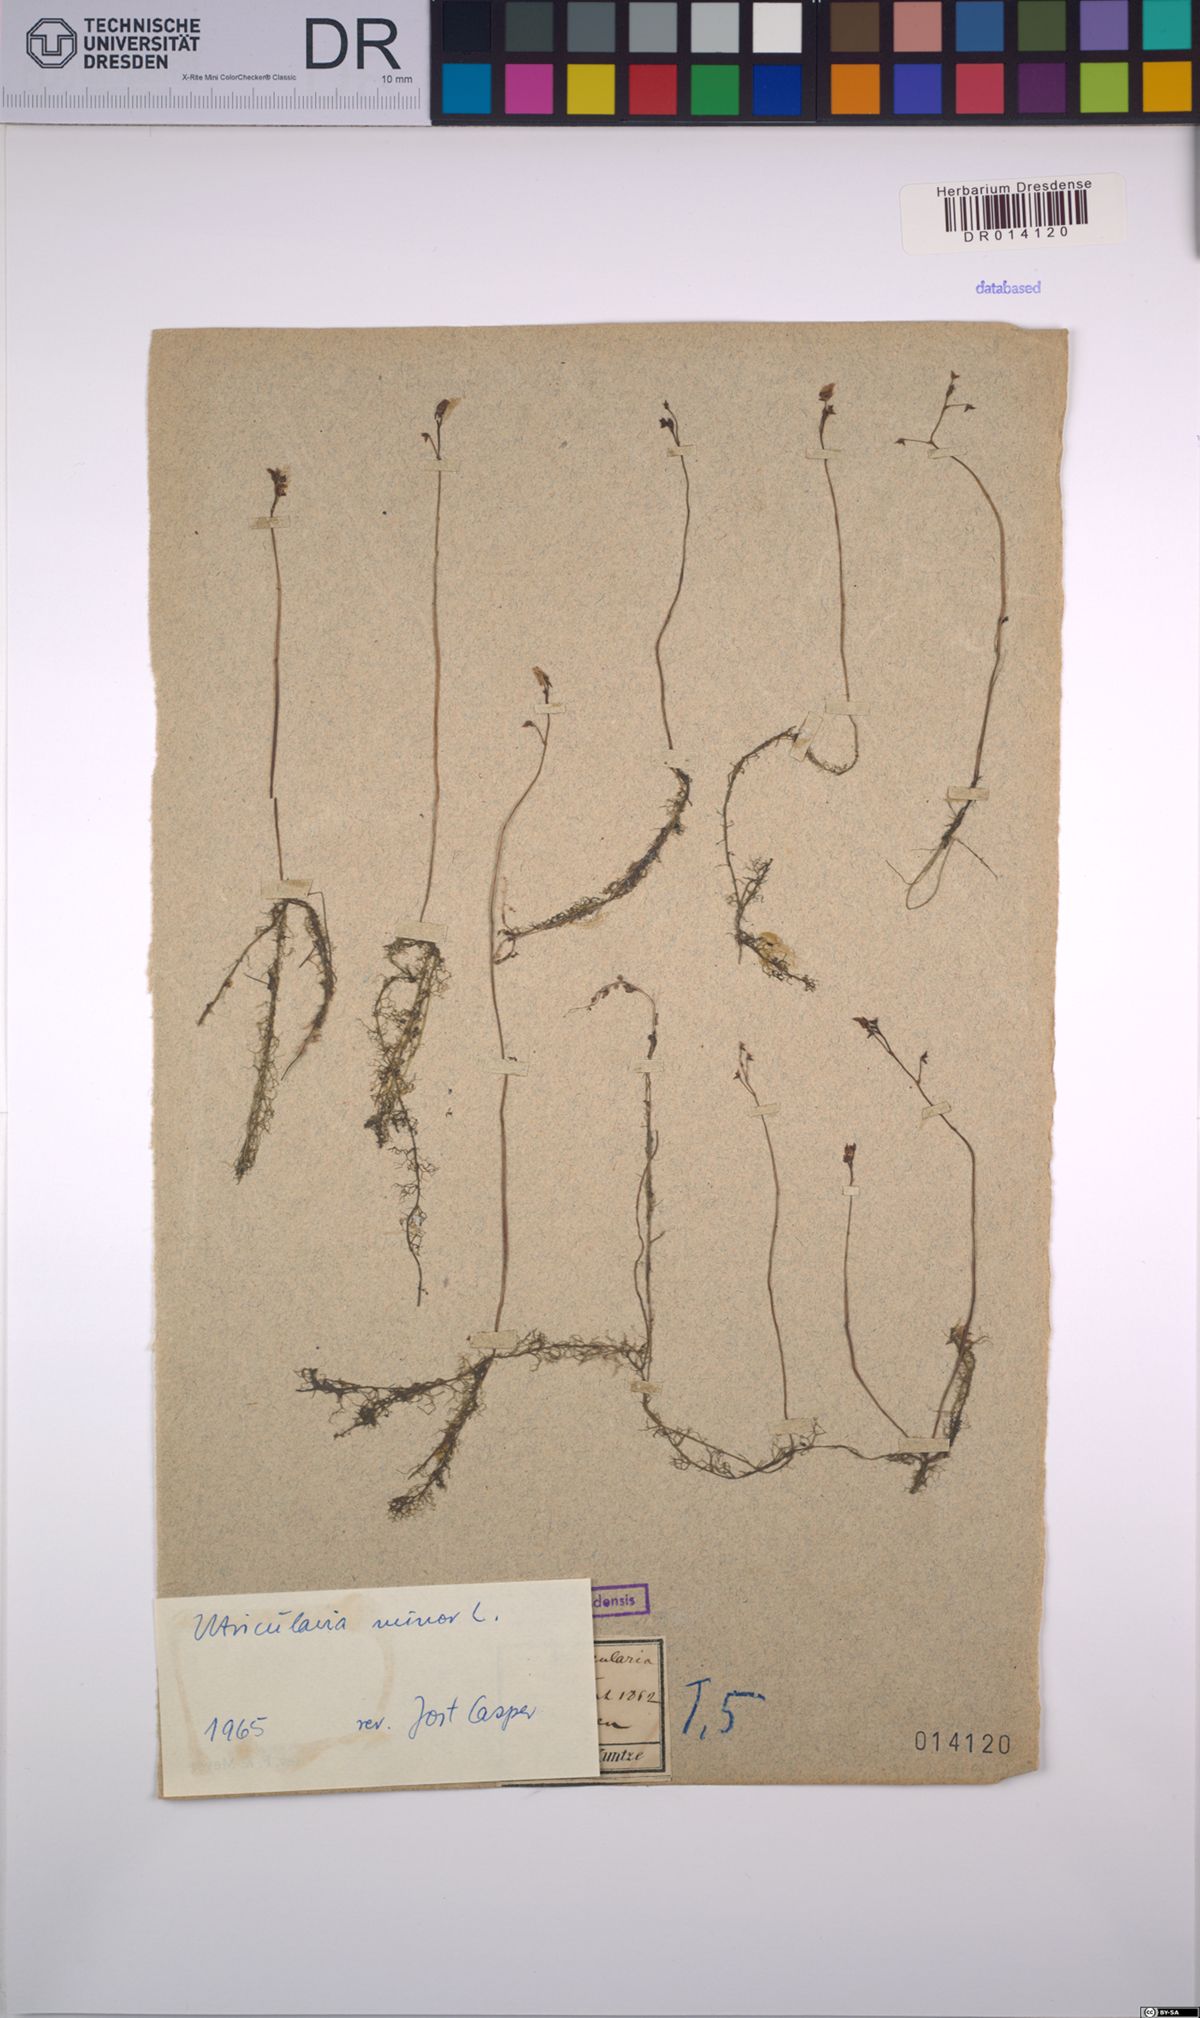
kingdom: Plantae
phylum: Tracheophyta
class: Magnoliopsida
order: Lamiales
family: Lentibulariaceae
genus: Utricularia
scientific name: Utricularia minor
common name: Lesser bladderwort
